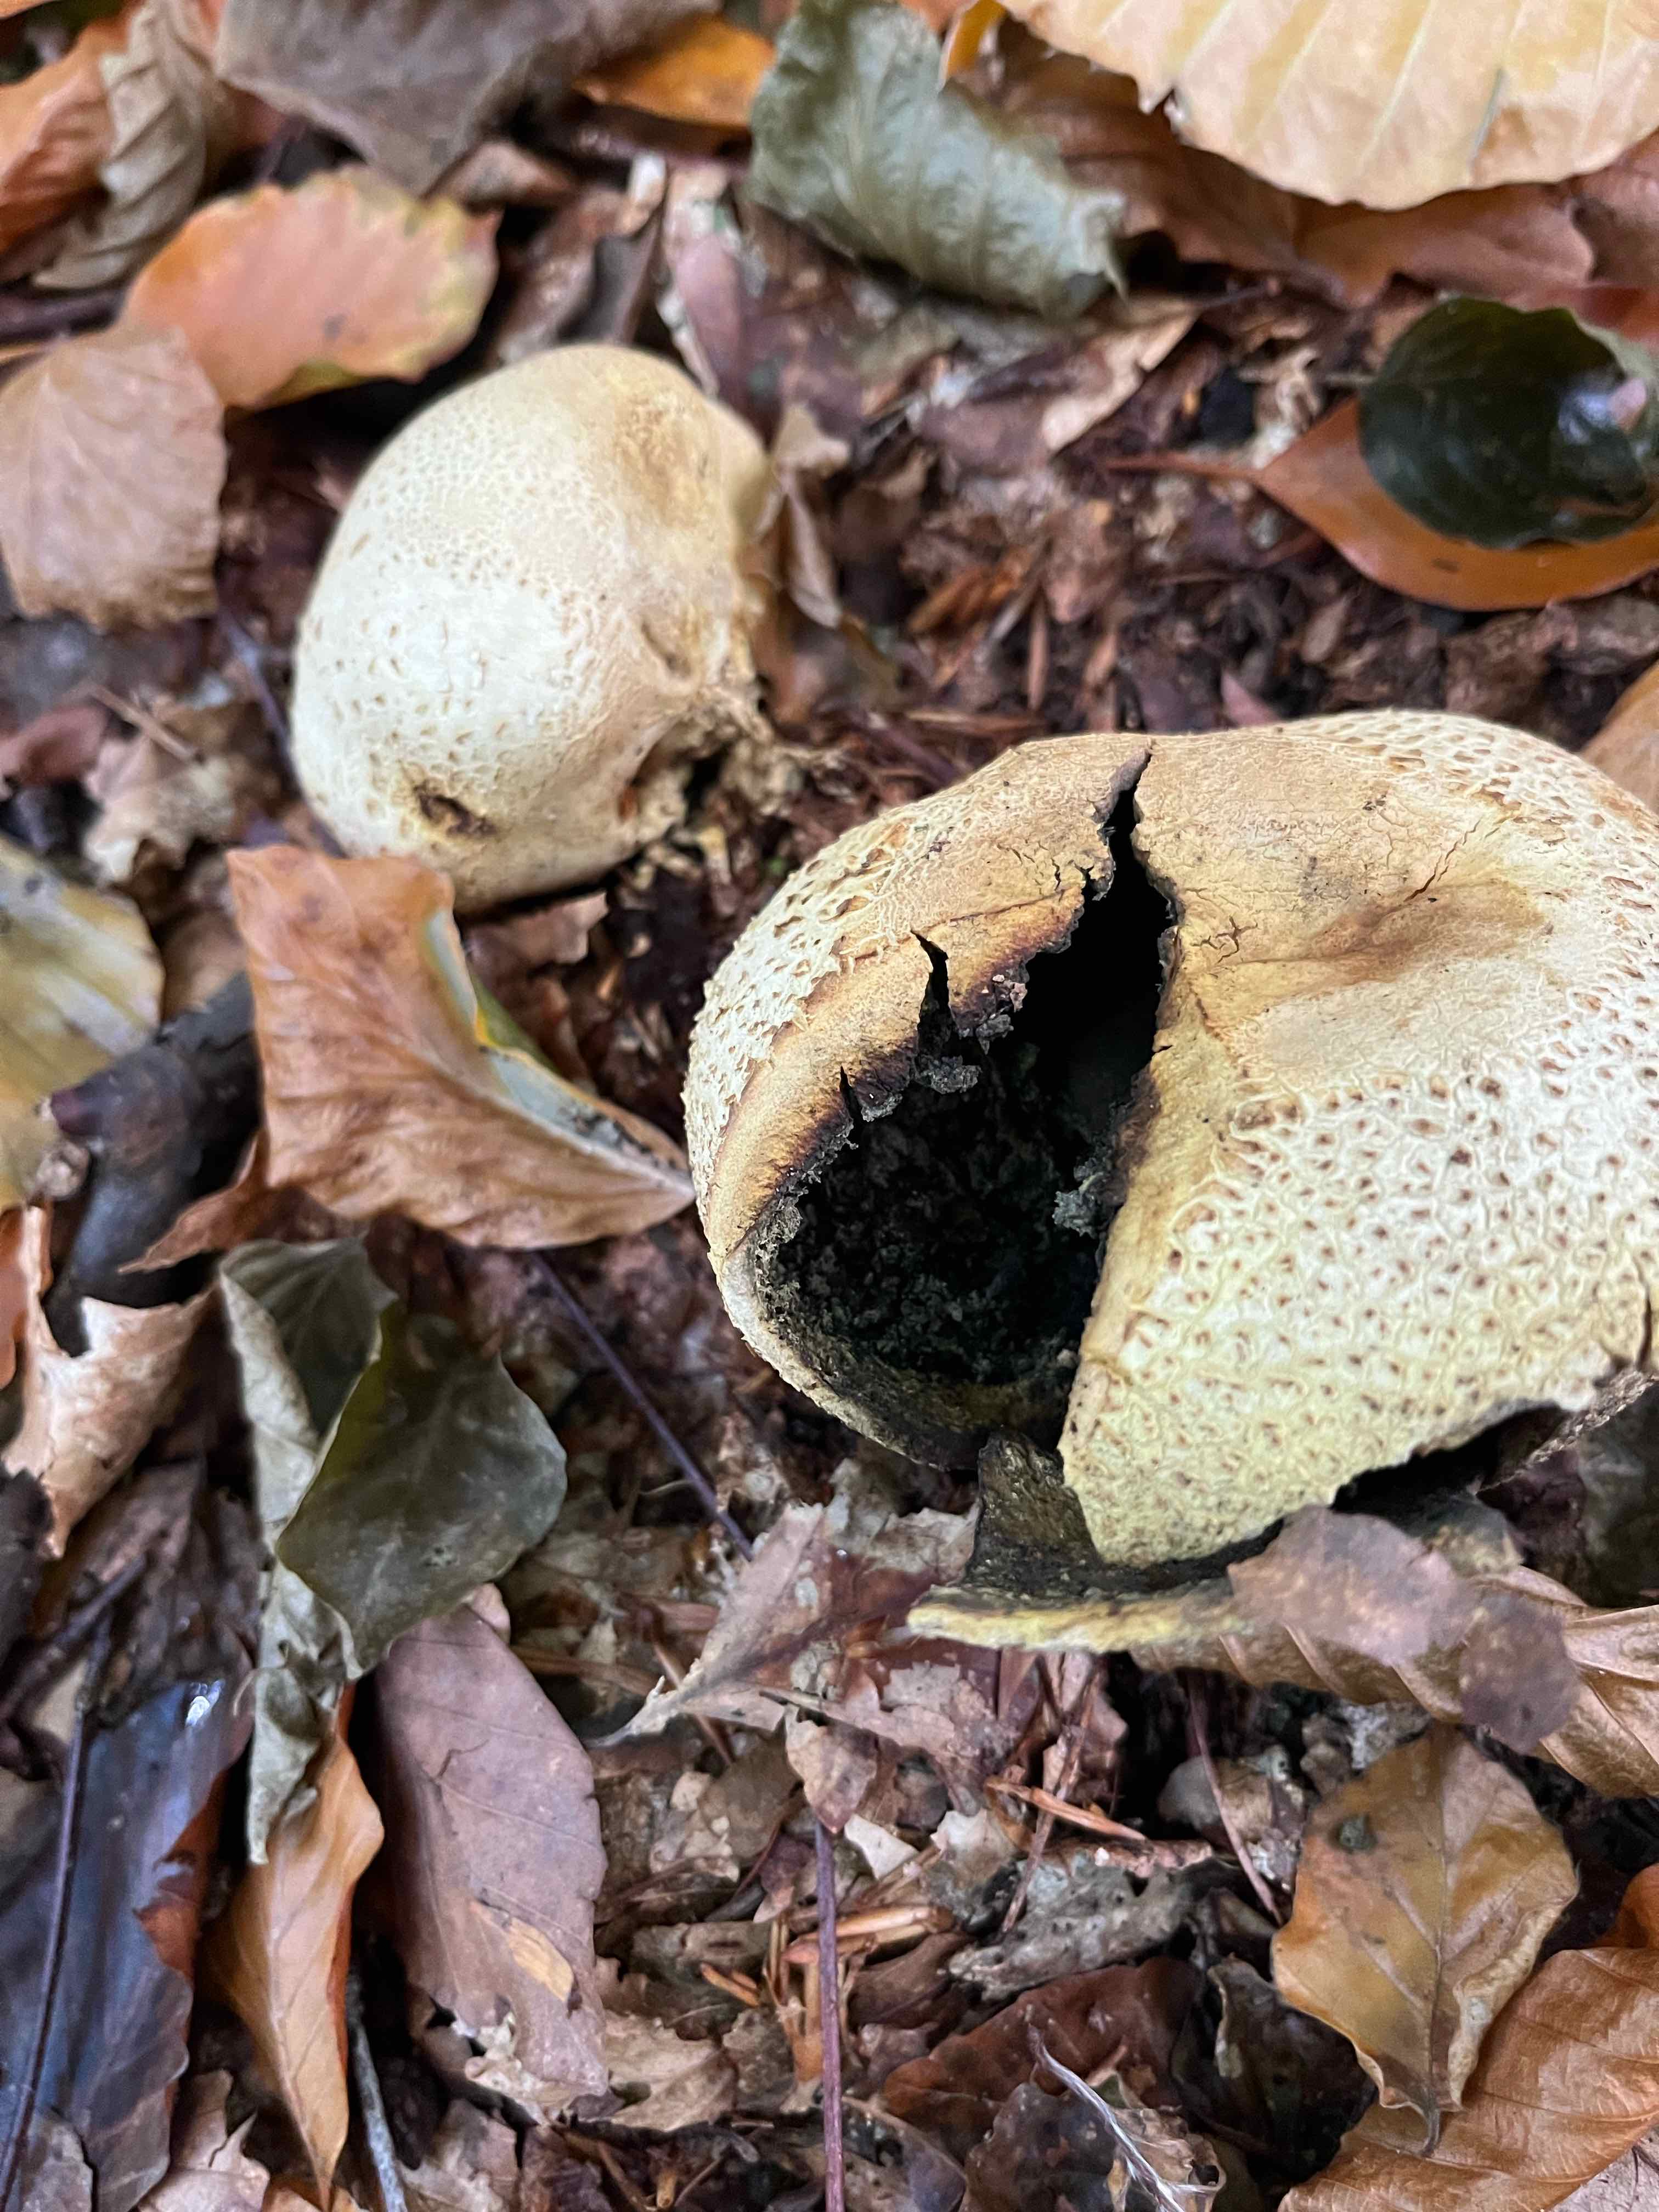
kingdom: Fungi
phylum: Basidiomycota
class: Agaricomycetes
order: Boletales
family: Sclerodermataceae
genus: Scleroderma
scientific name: Scleroderma citrinum
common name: almindelig bruskbold
